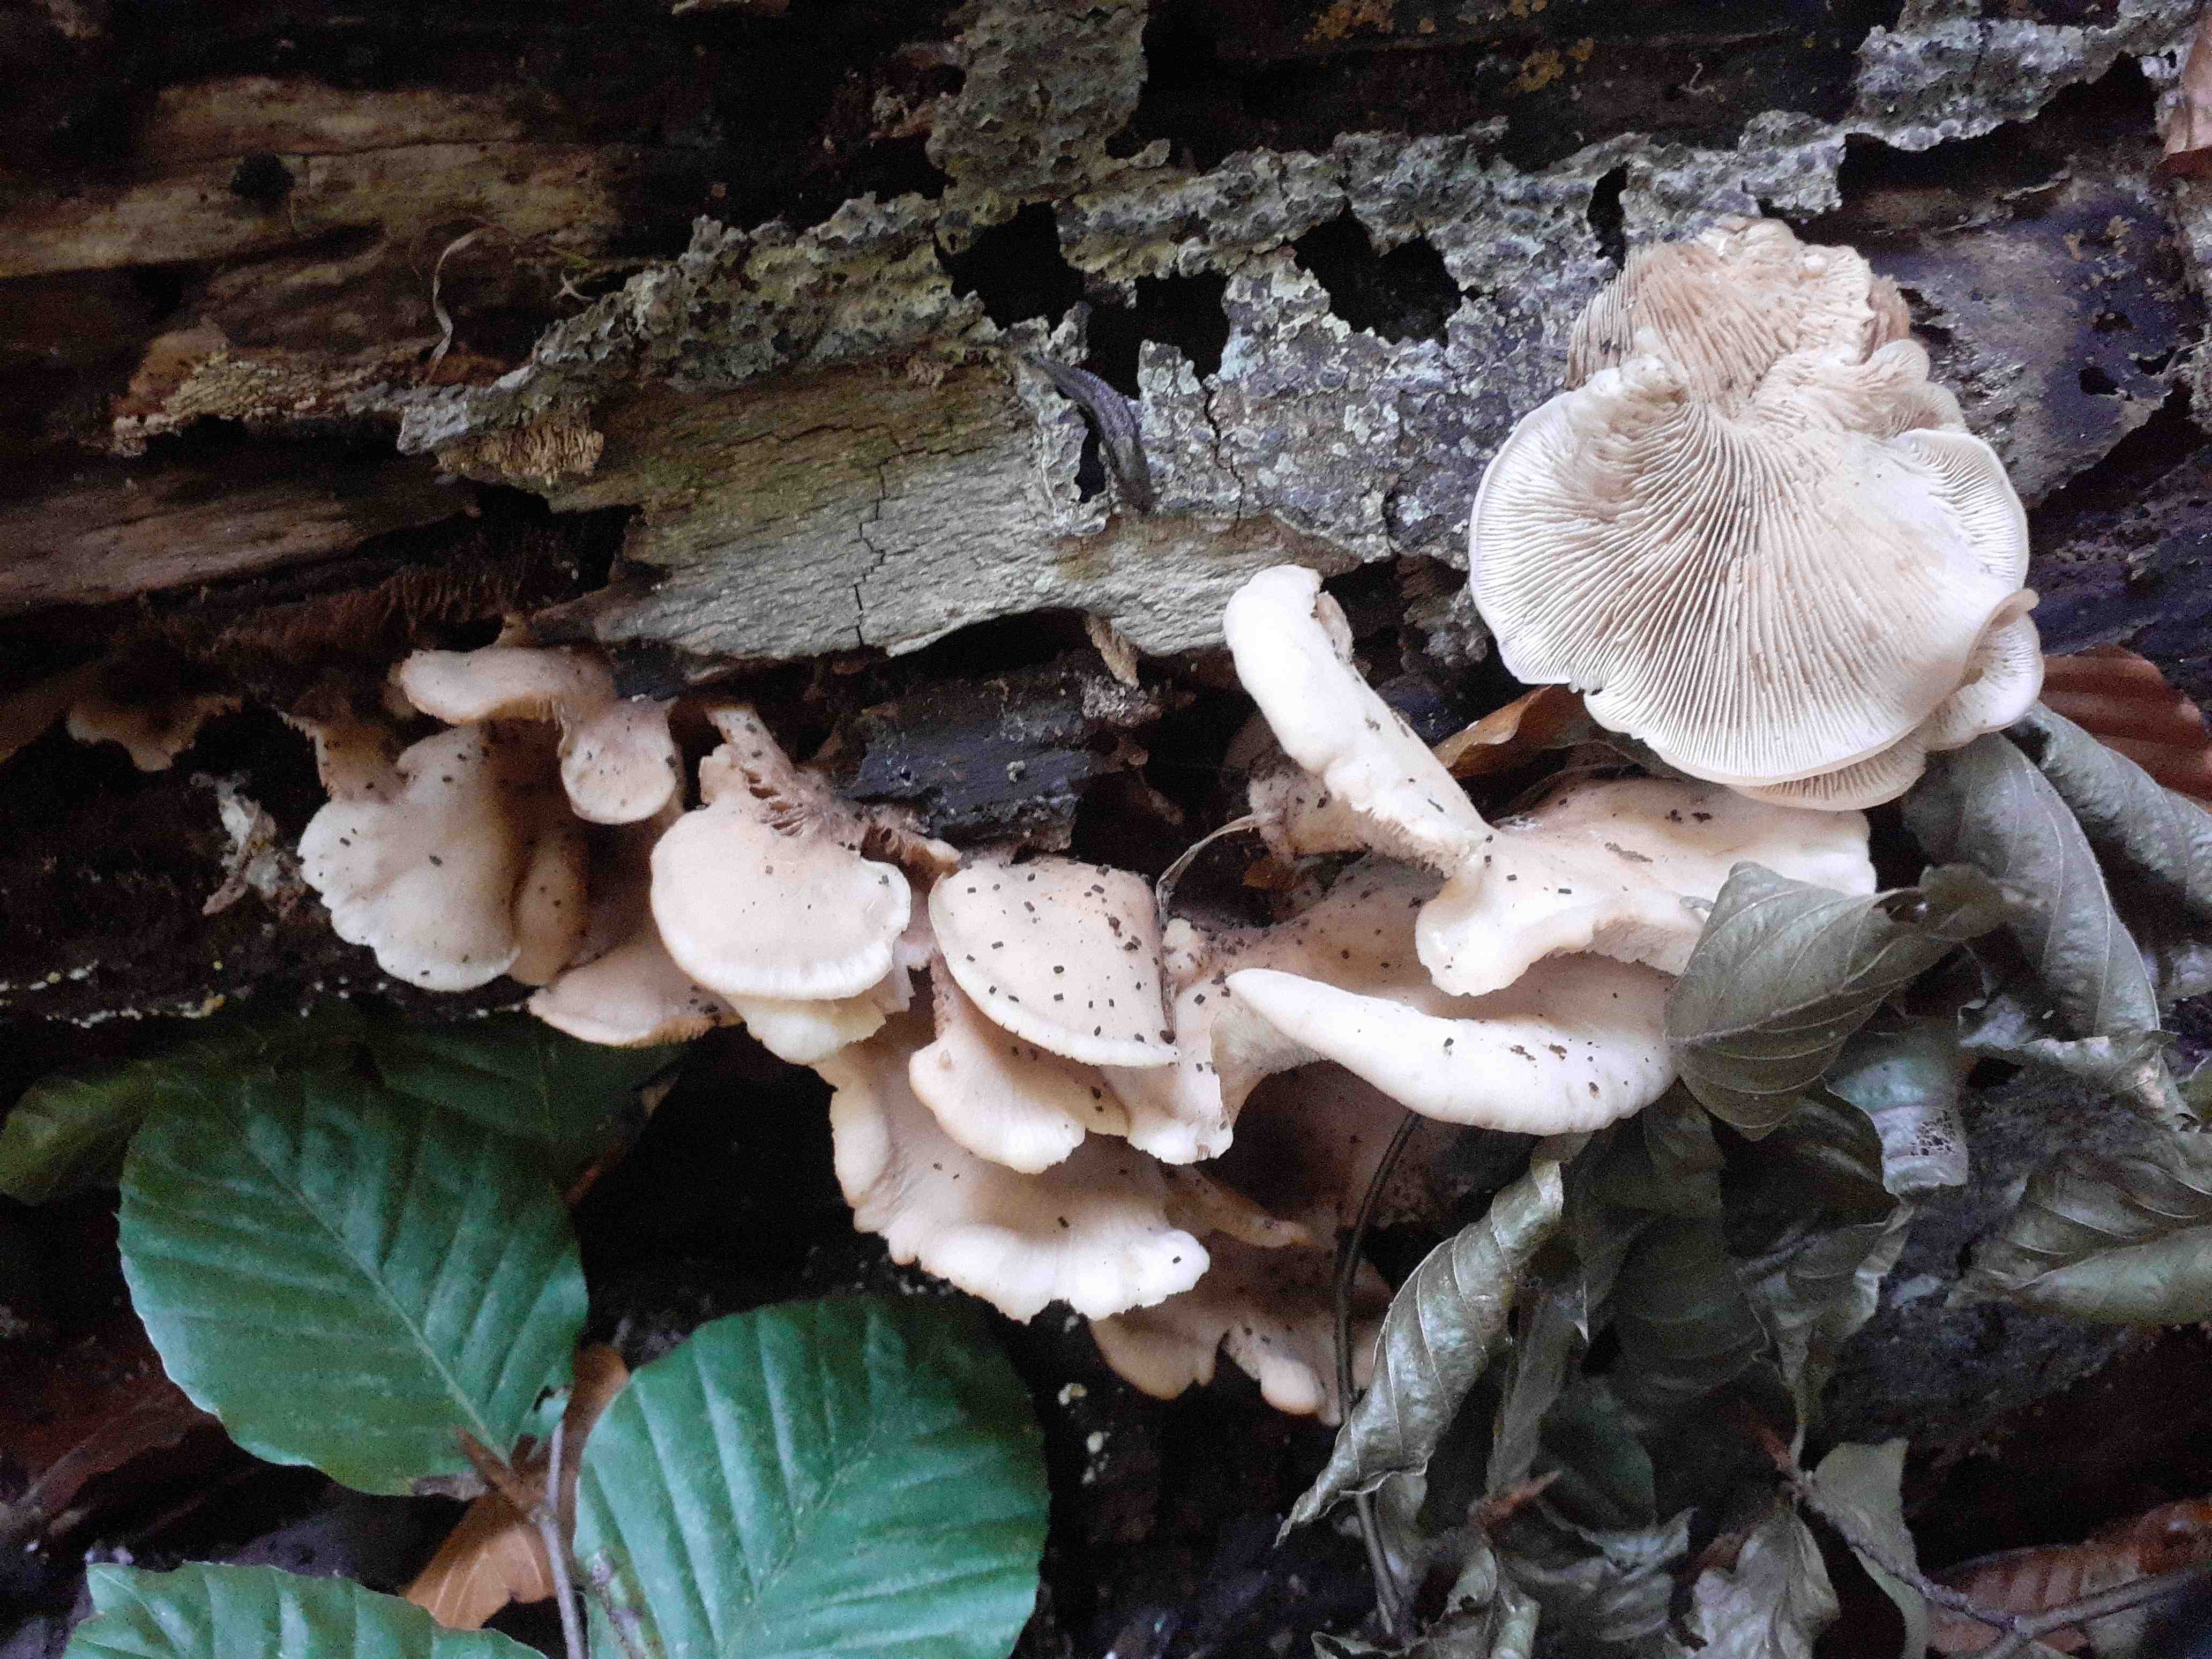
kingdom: Fungi
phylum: Basidiomycota
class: Agaricomycetes
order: Russulales
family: Auriscalpiaceae
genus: Lentinellus
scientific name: Lentinellus ursinus
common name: børstehåret savbladhat
